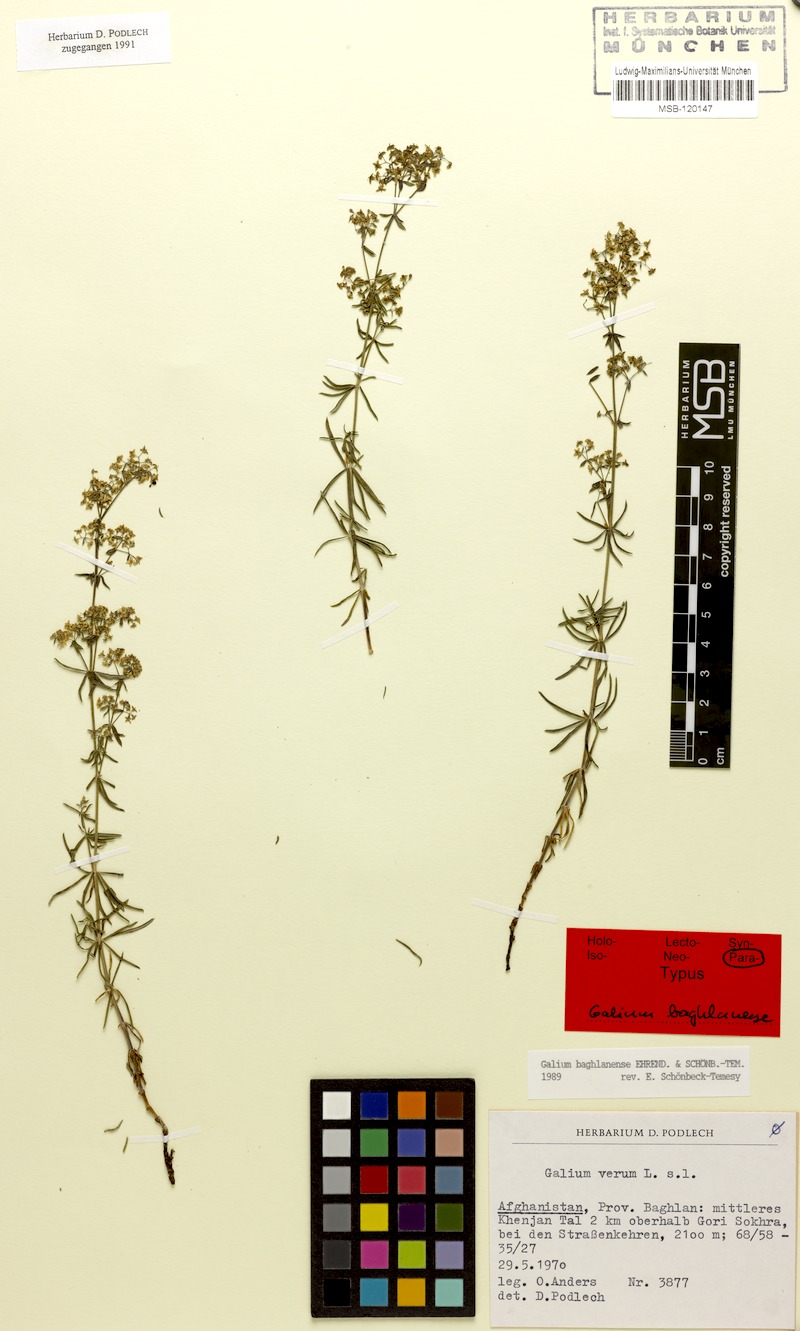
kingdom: Plantae
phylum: Tracheophyta
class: Magnoliopsida
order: Gentianales
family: Rubiaceae
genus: Galium
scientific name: Galium baghlanense
